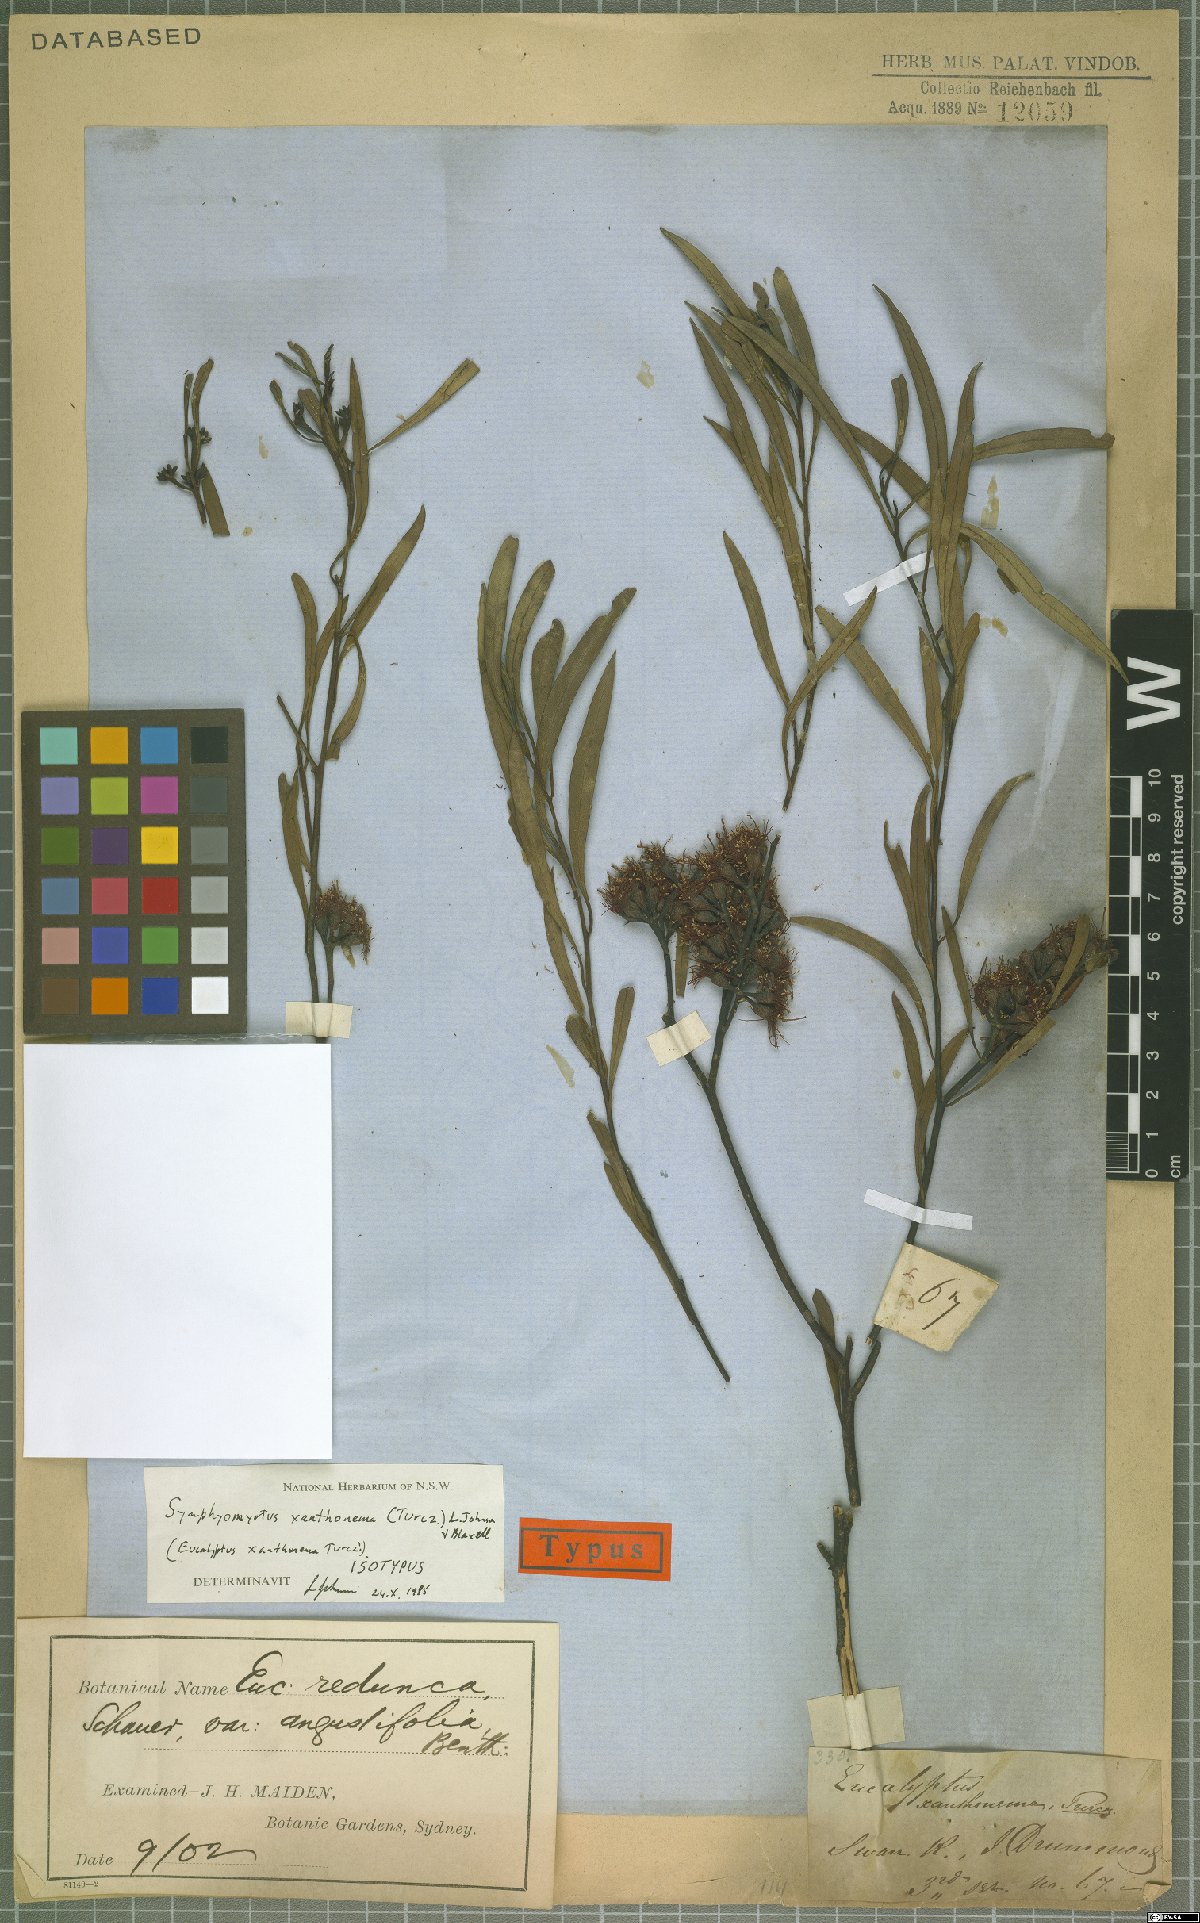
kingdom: Plantae
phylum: Tracheophyta
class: Magnoliopsida
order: Myrtales
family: Myrtaceae
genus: Eucalyptus
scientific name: Eucalyptus xanthonema
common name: Needilup mallee
